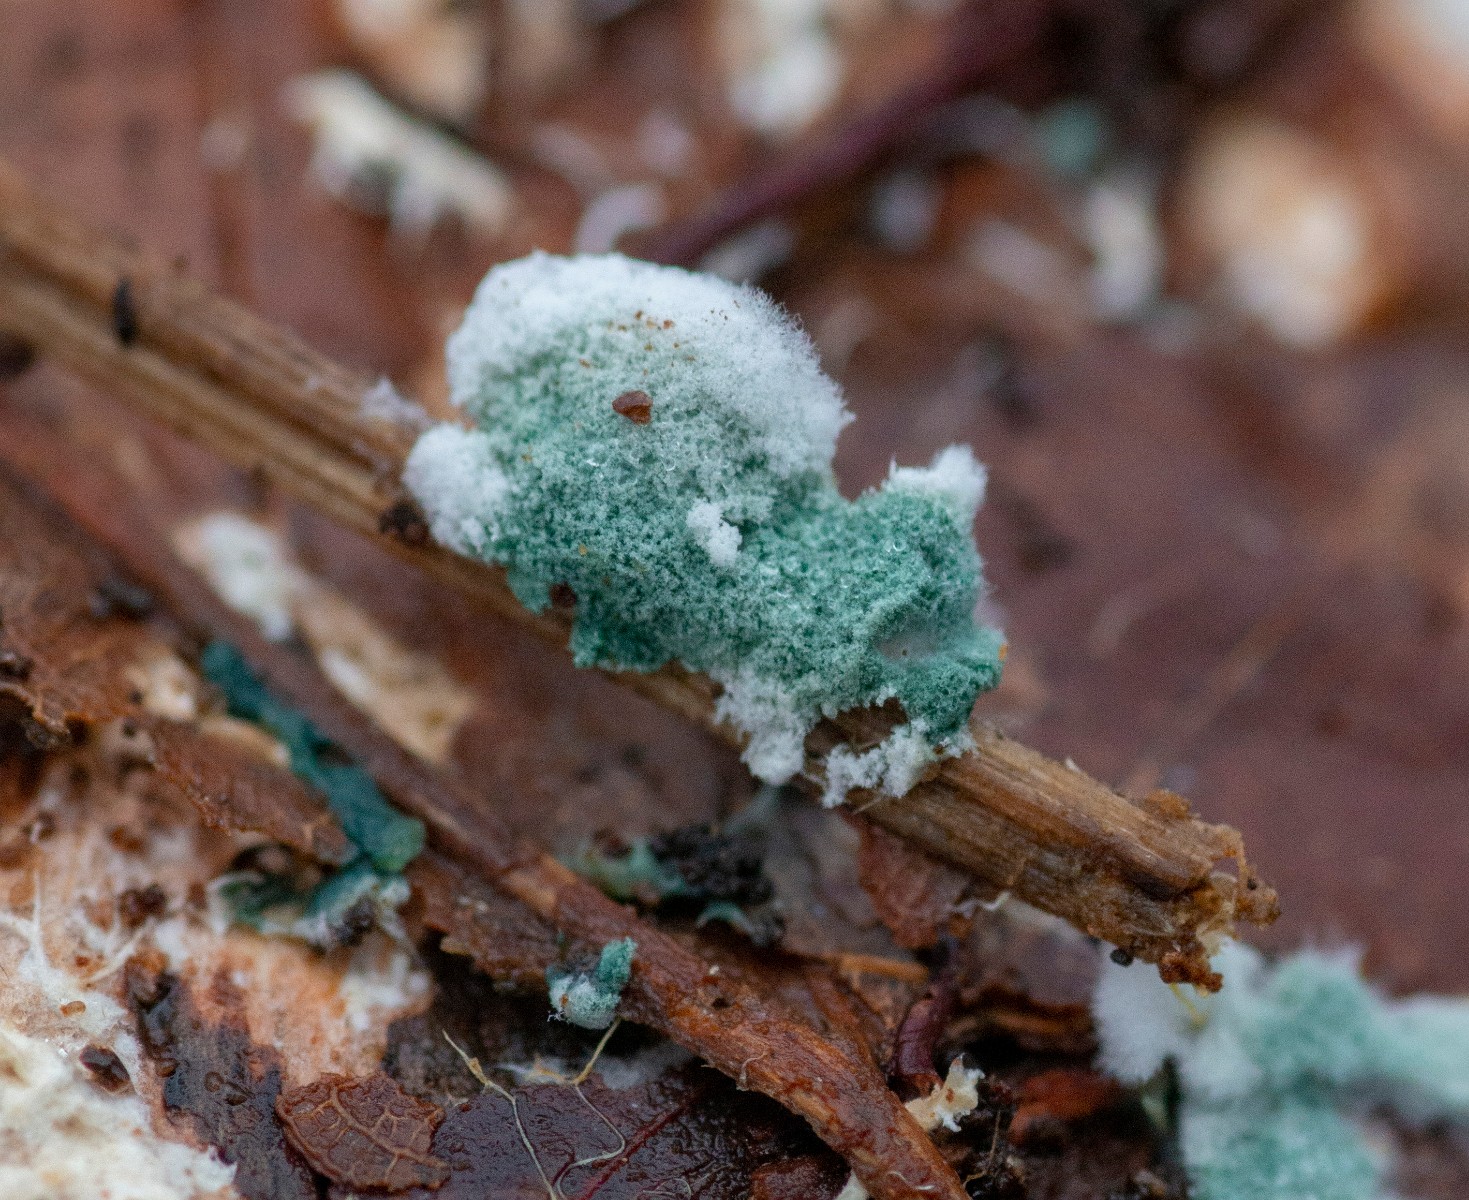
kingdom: Fungi
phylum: Ascomycota
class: Sordariomycetes
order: Hypocreales
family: Hypocreaceae
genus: Trichoderma
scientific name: Trichoderma
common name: kødkerne
